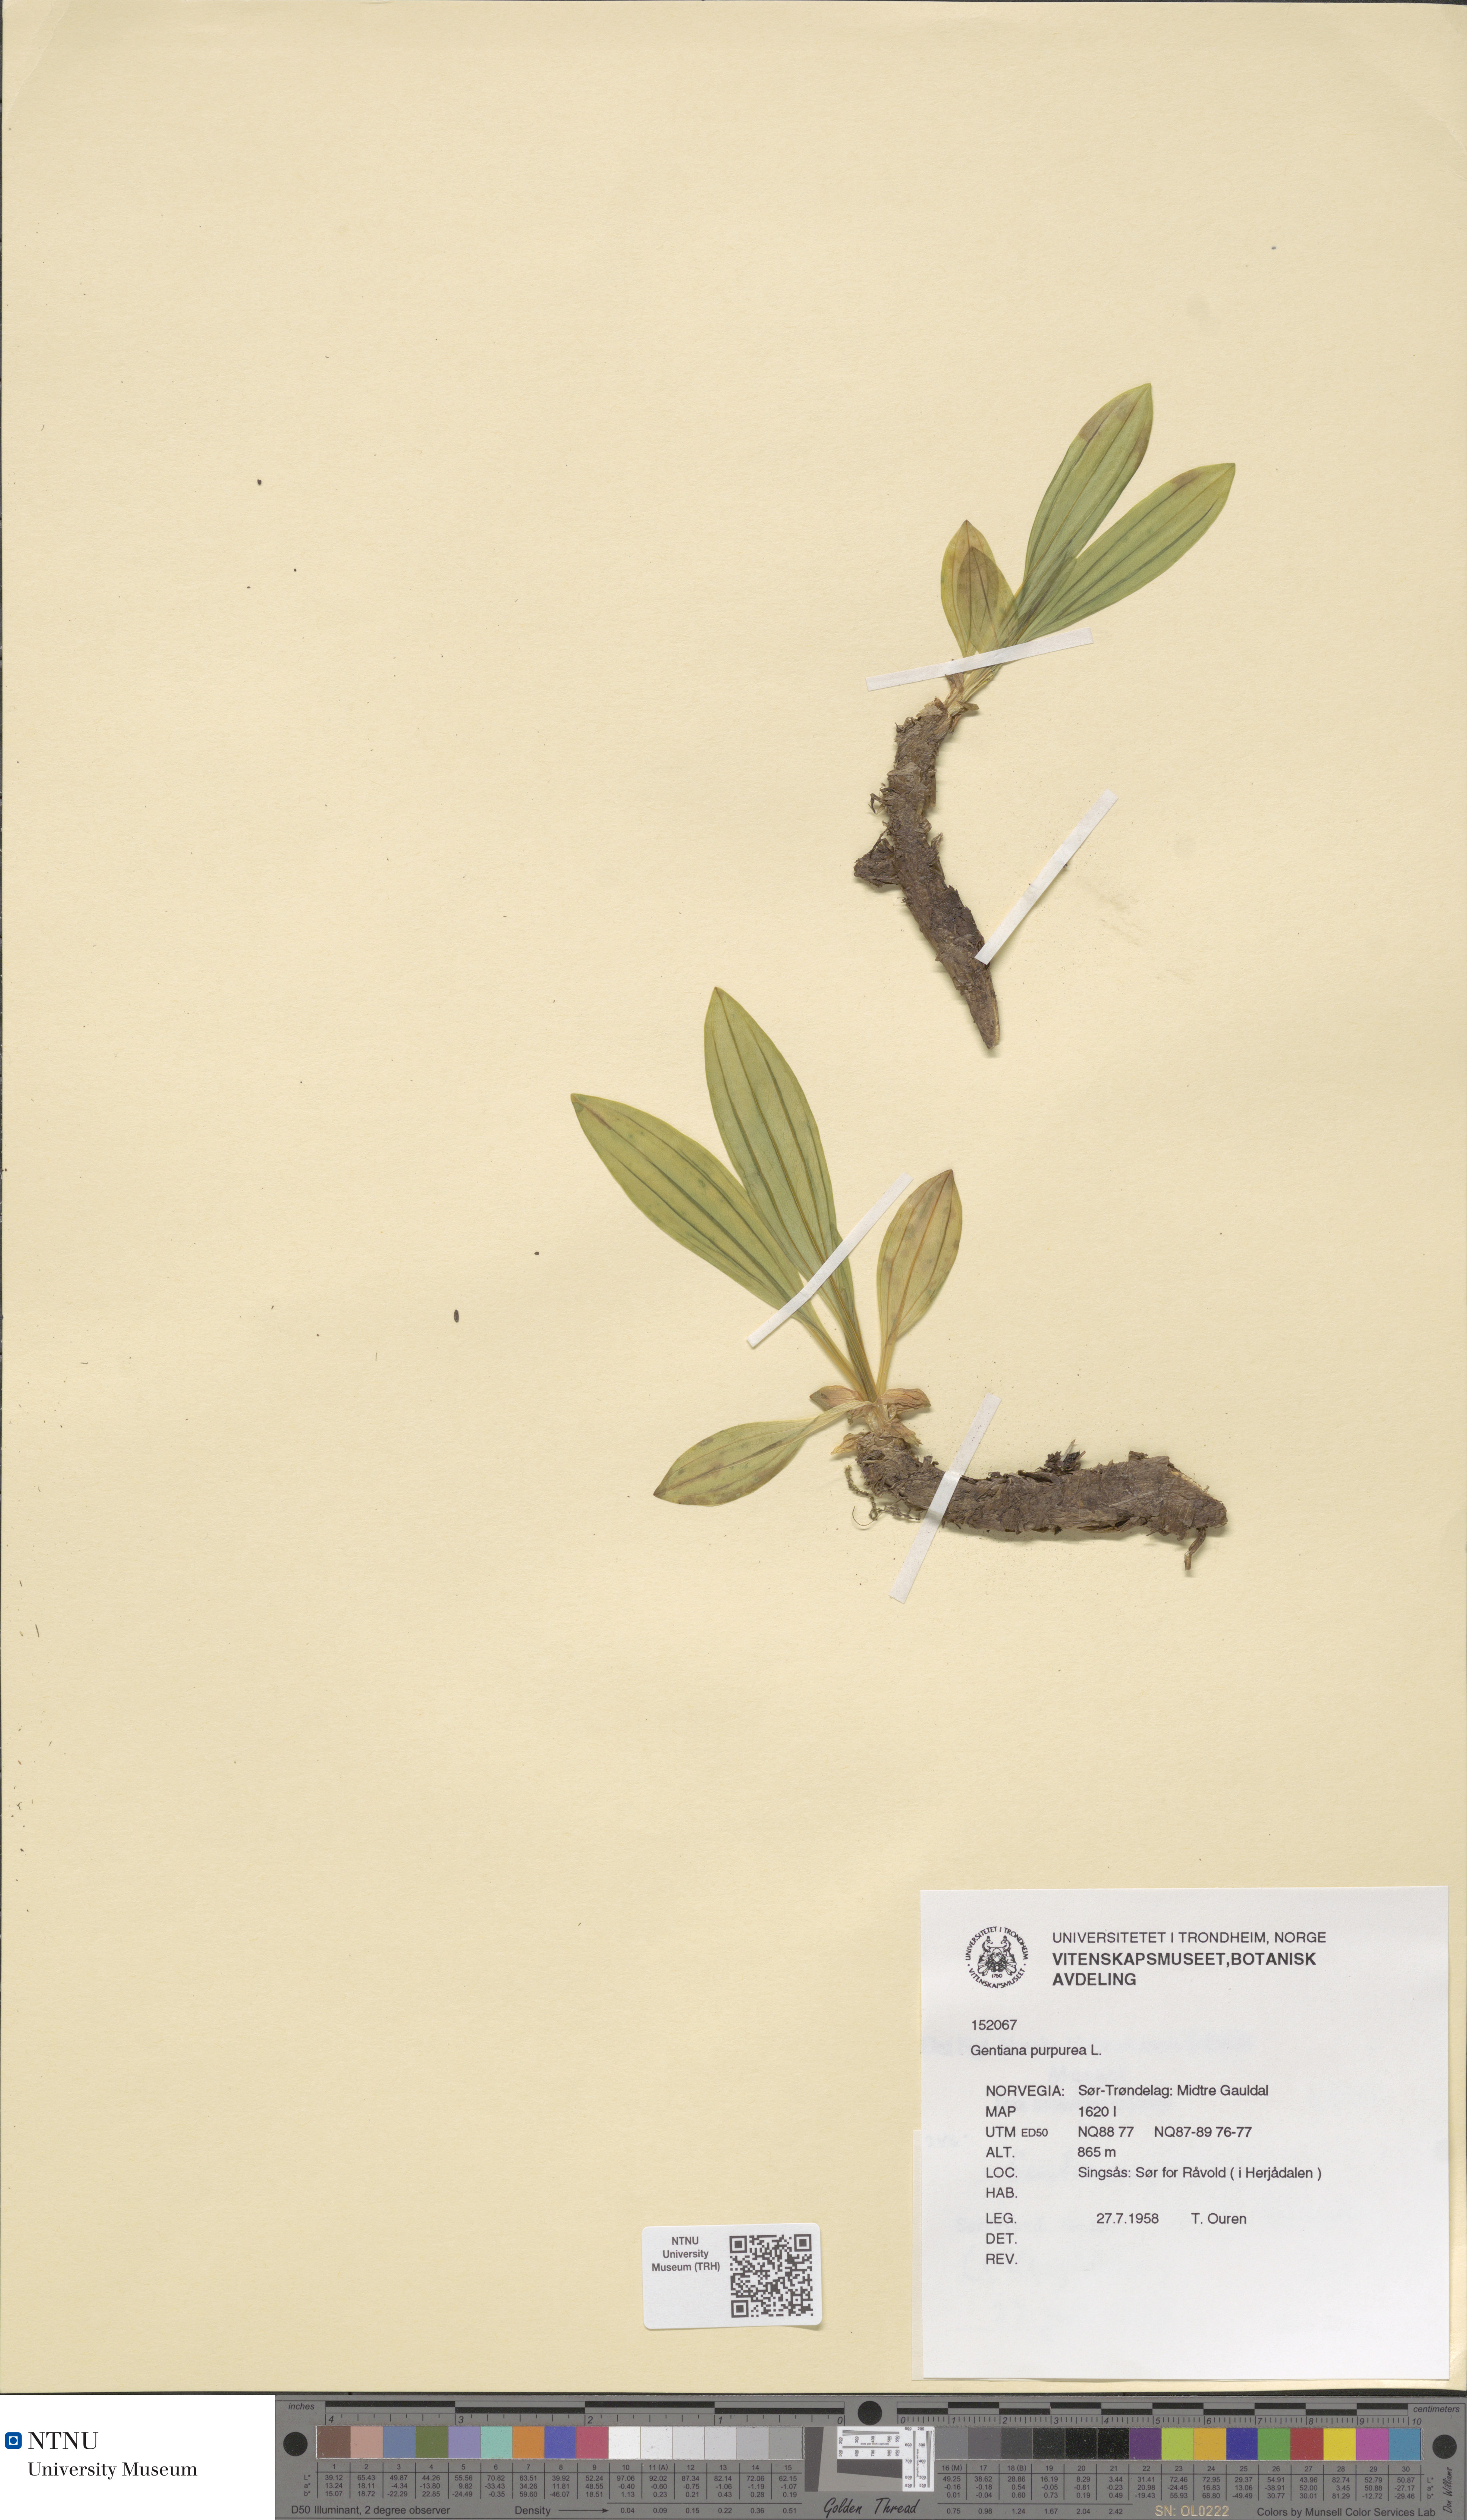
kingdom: Plantae
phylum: Tracheophyta
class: Magnoliopsida
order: Gentianales
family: Gentianaceae
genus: Gentiana
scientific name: Gentiana purpurea
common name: Purple gentian
